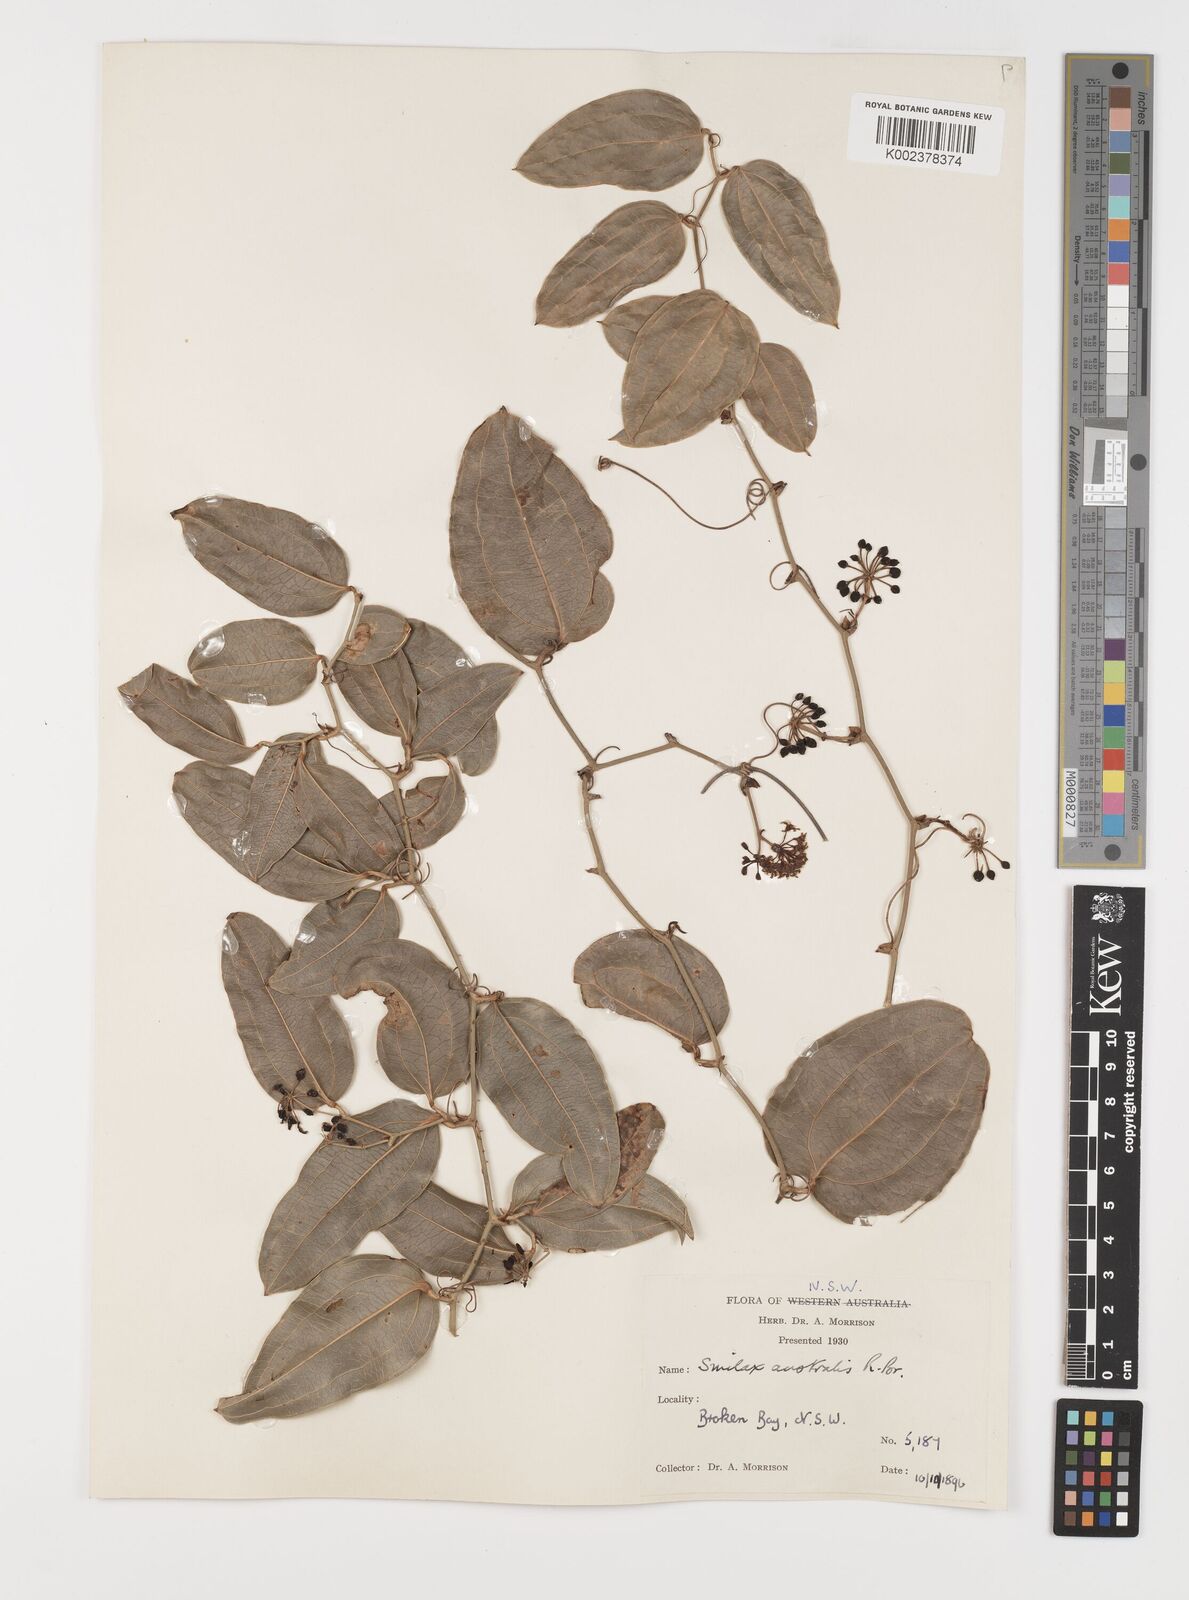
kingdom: Plantae
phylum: Tracheophyta
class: Liliopsida
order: Liliales
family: Smilacaceae
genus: Smilax
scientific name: Smilax australis
